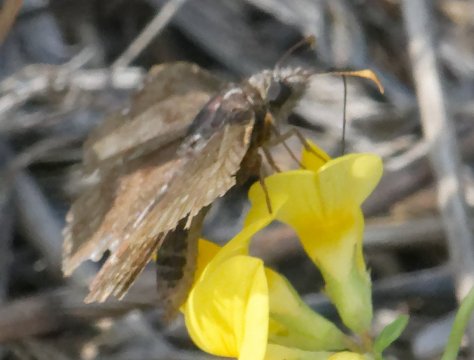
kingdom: Animalia
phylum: Arthropoda
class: Insecta
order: Lepidoptera
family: Hesperiidae
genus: Gesta
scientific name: Gesta
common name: Wild Indigo Duskywing
